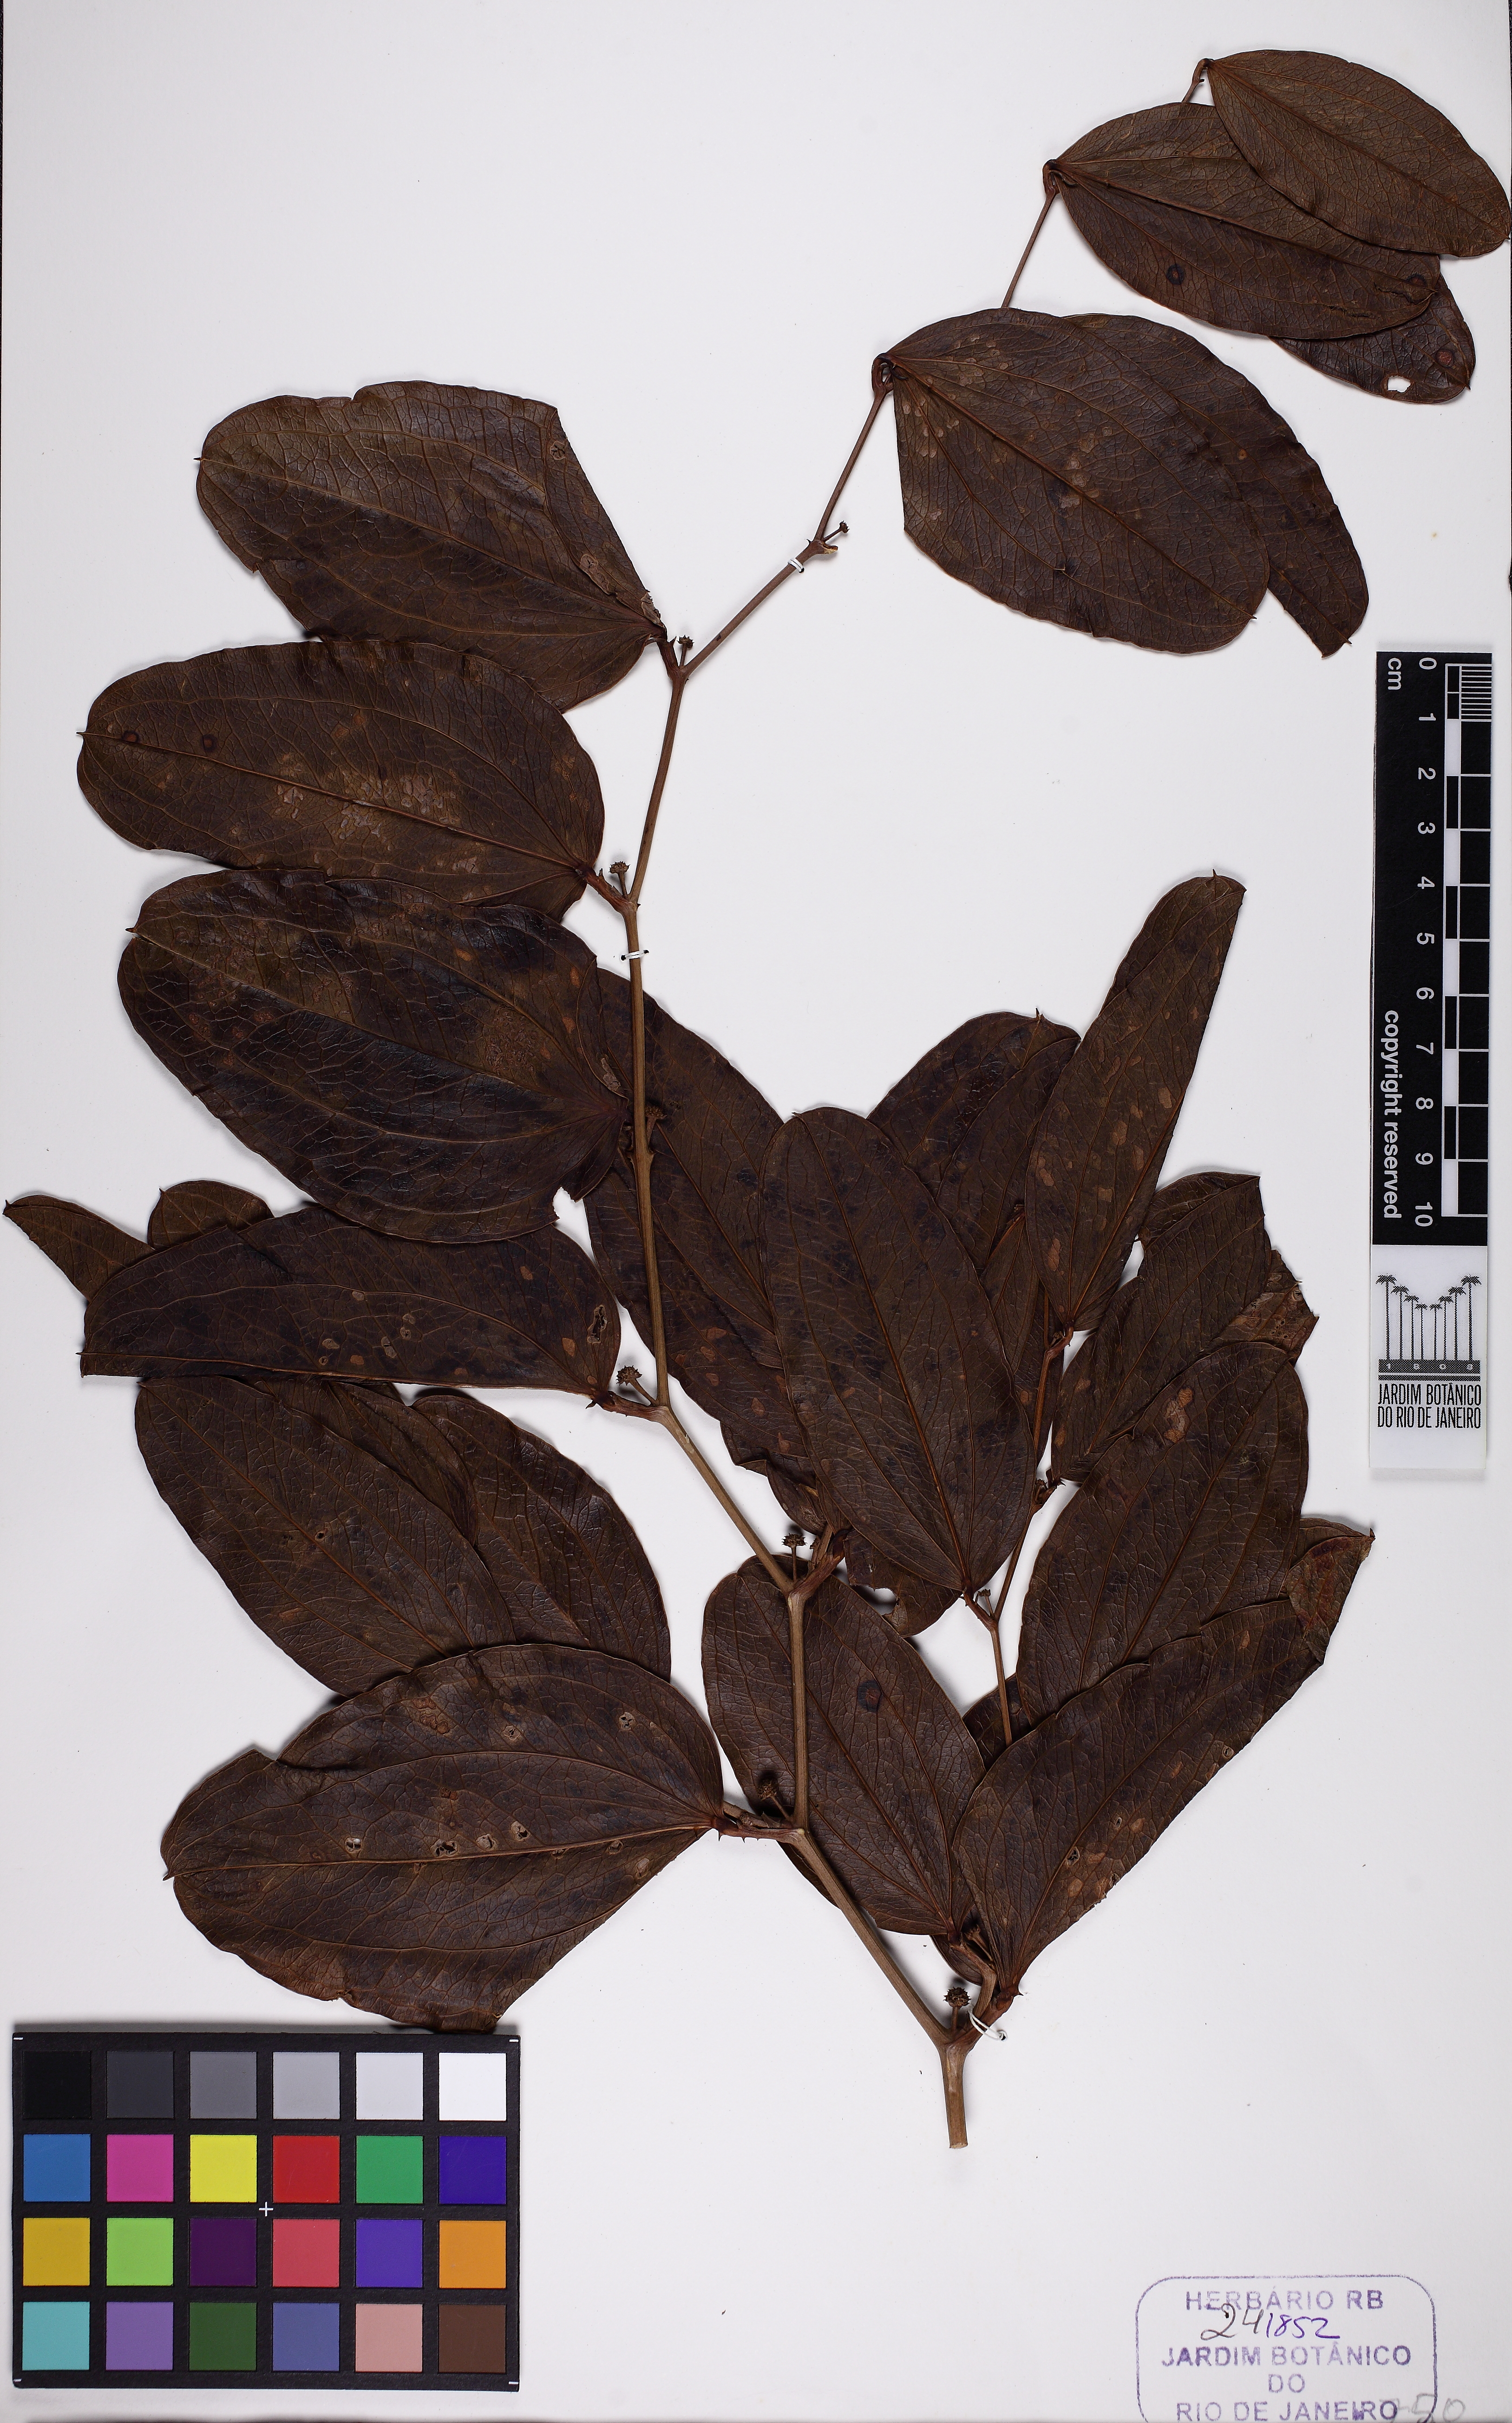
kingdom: Plantae
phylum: Tracheophyta
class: Liliopsida
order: Liliales
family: Smilacaceae
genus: Smilax
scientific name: Smilax goyazana
